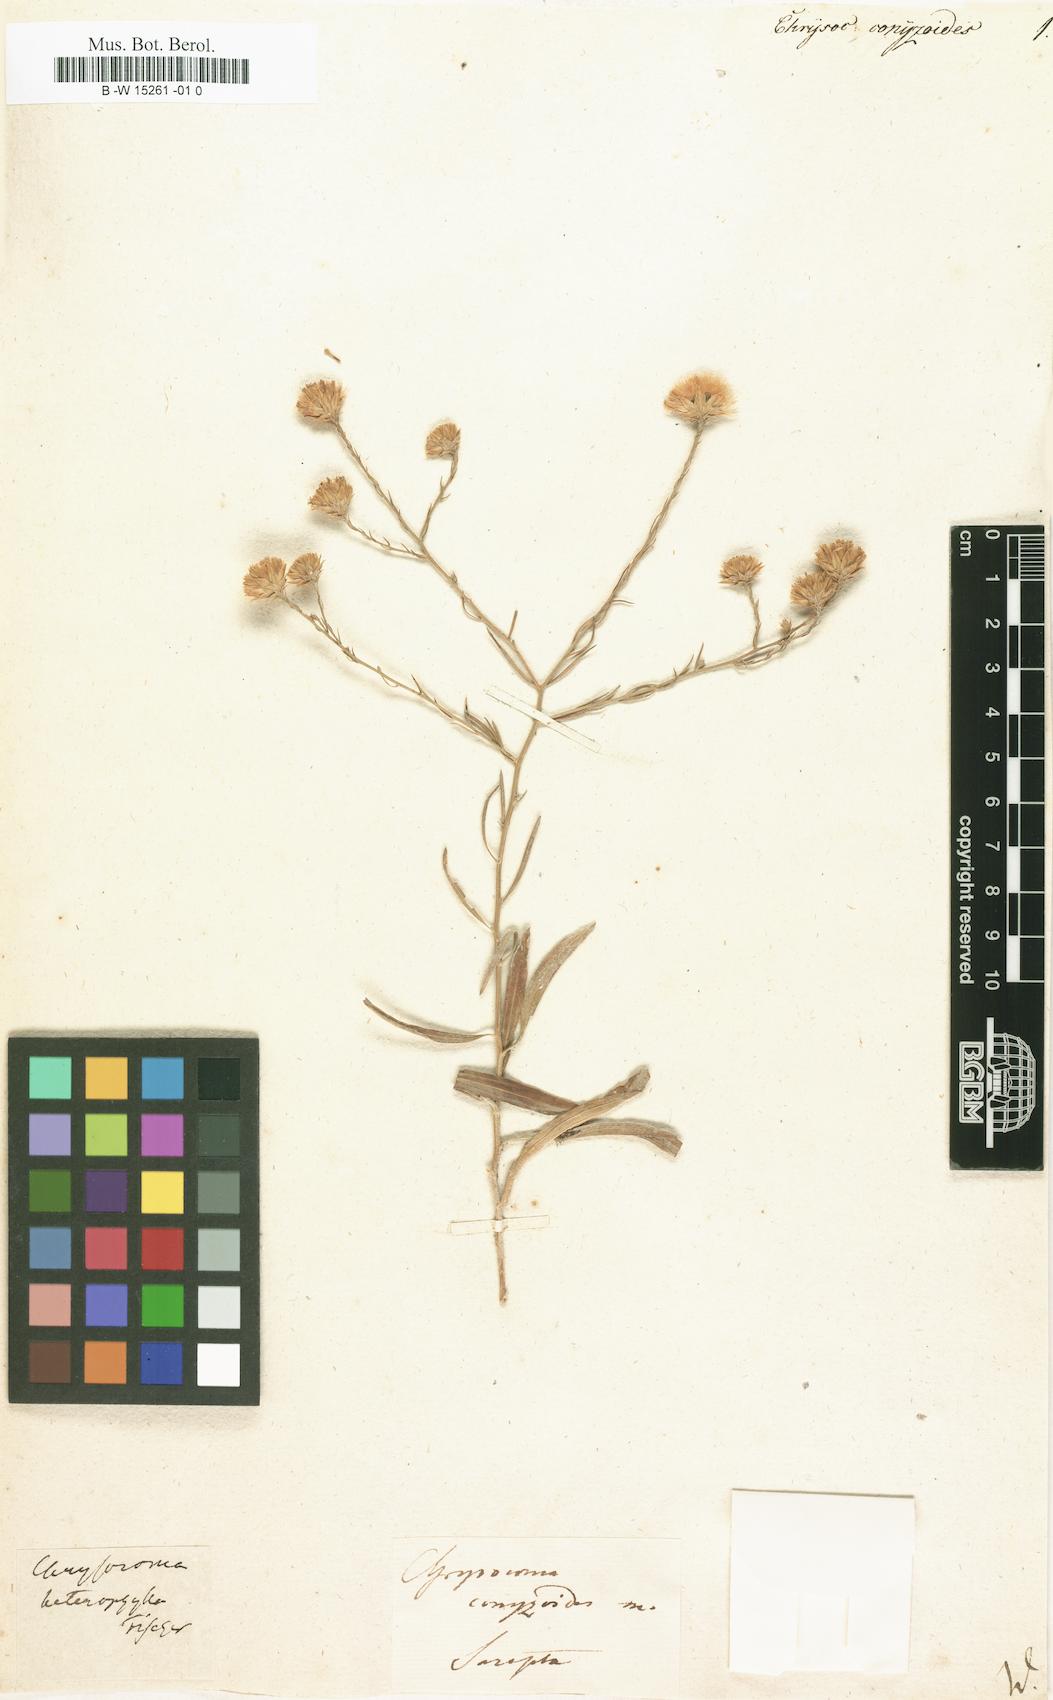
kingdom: Plantae
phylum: Tracheophyta
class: Magnoliopsida
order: Asterales
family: Asteraceae
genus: Chrysocoma
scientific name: Chrysocoma
